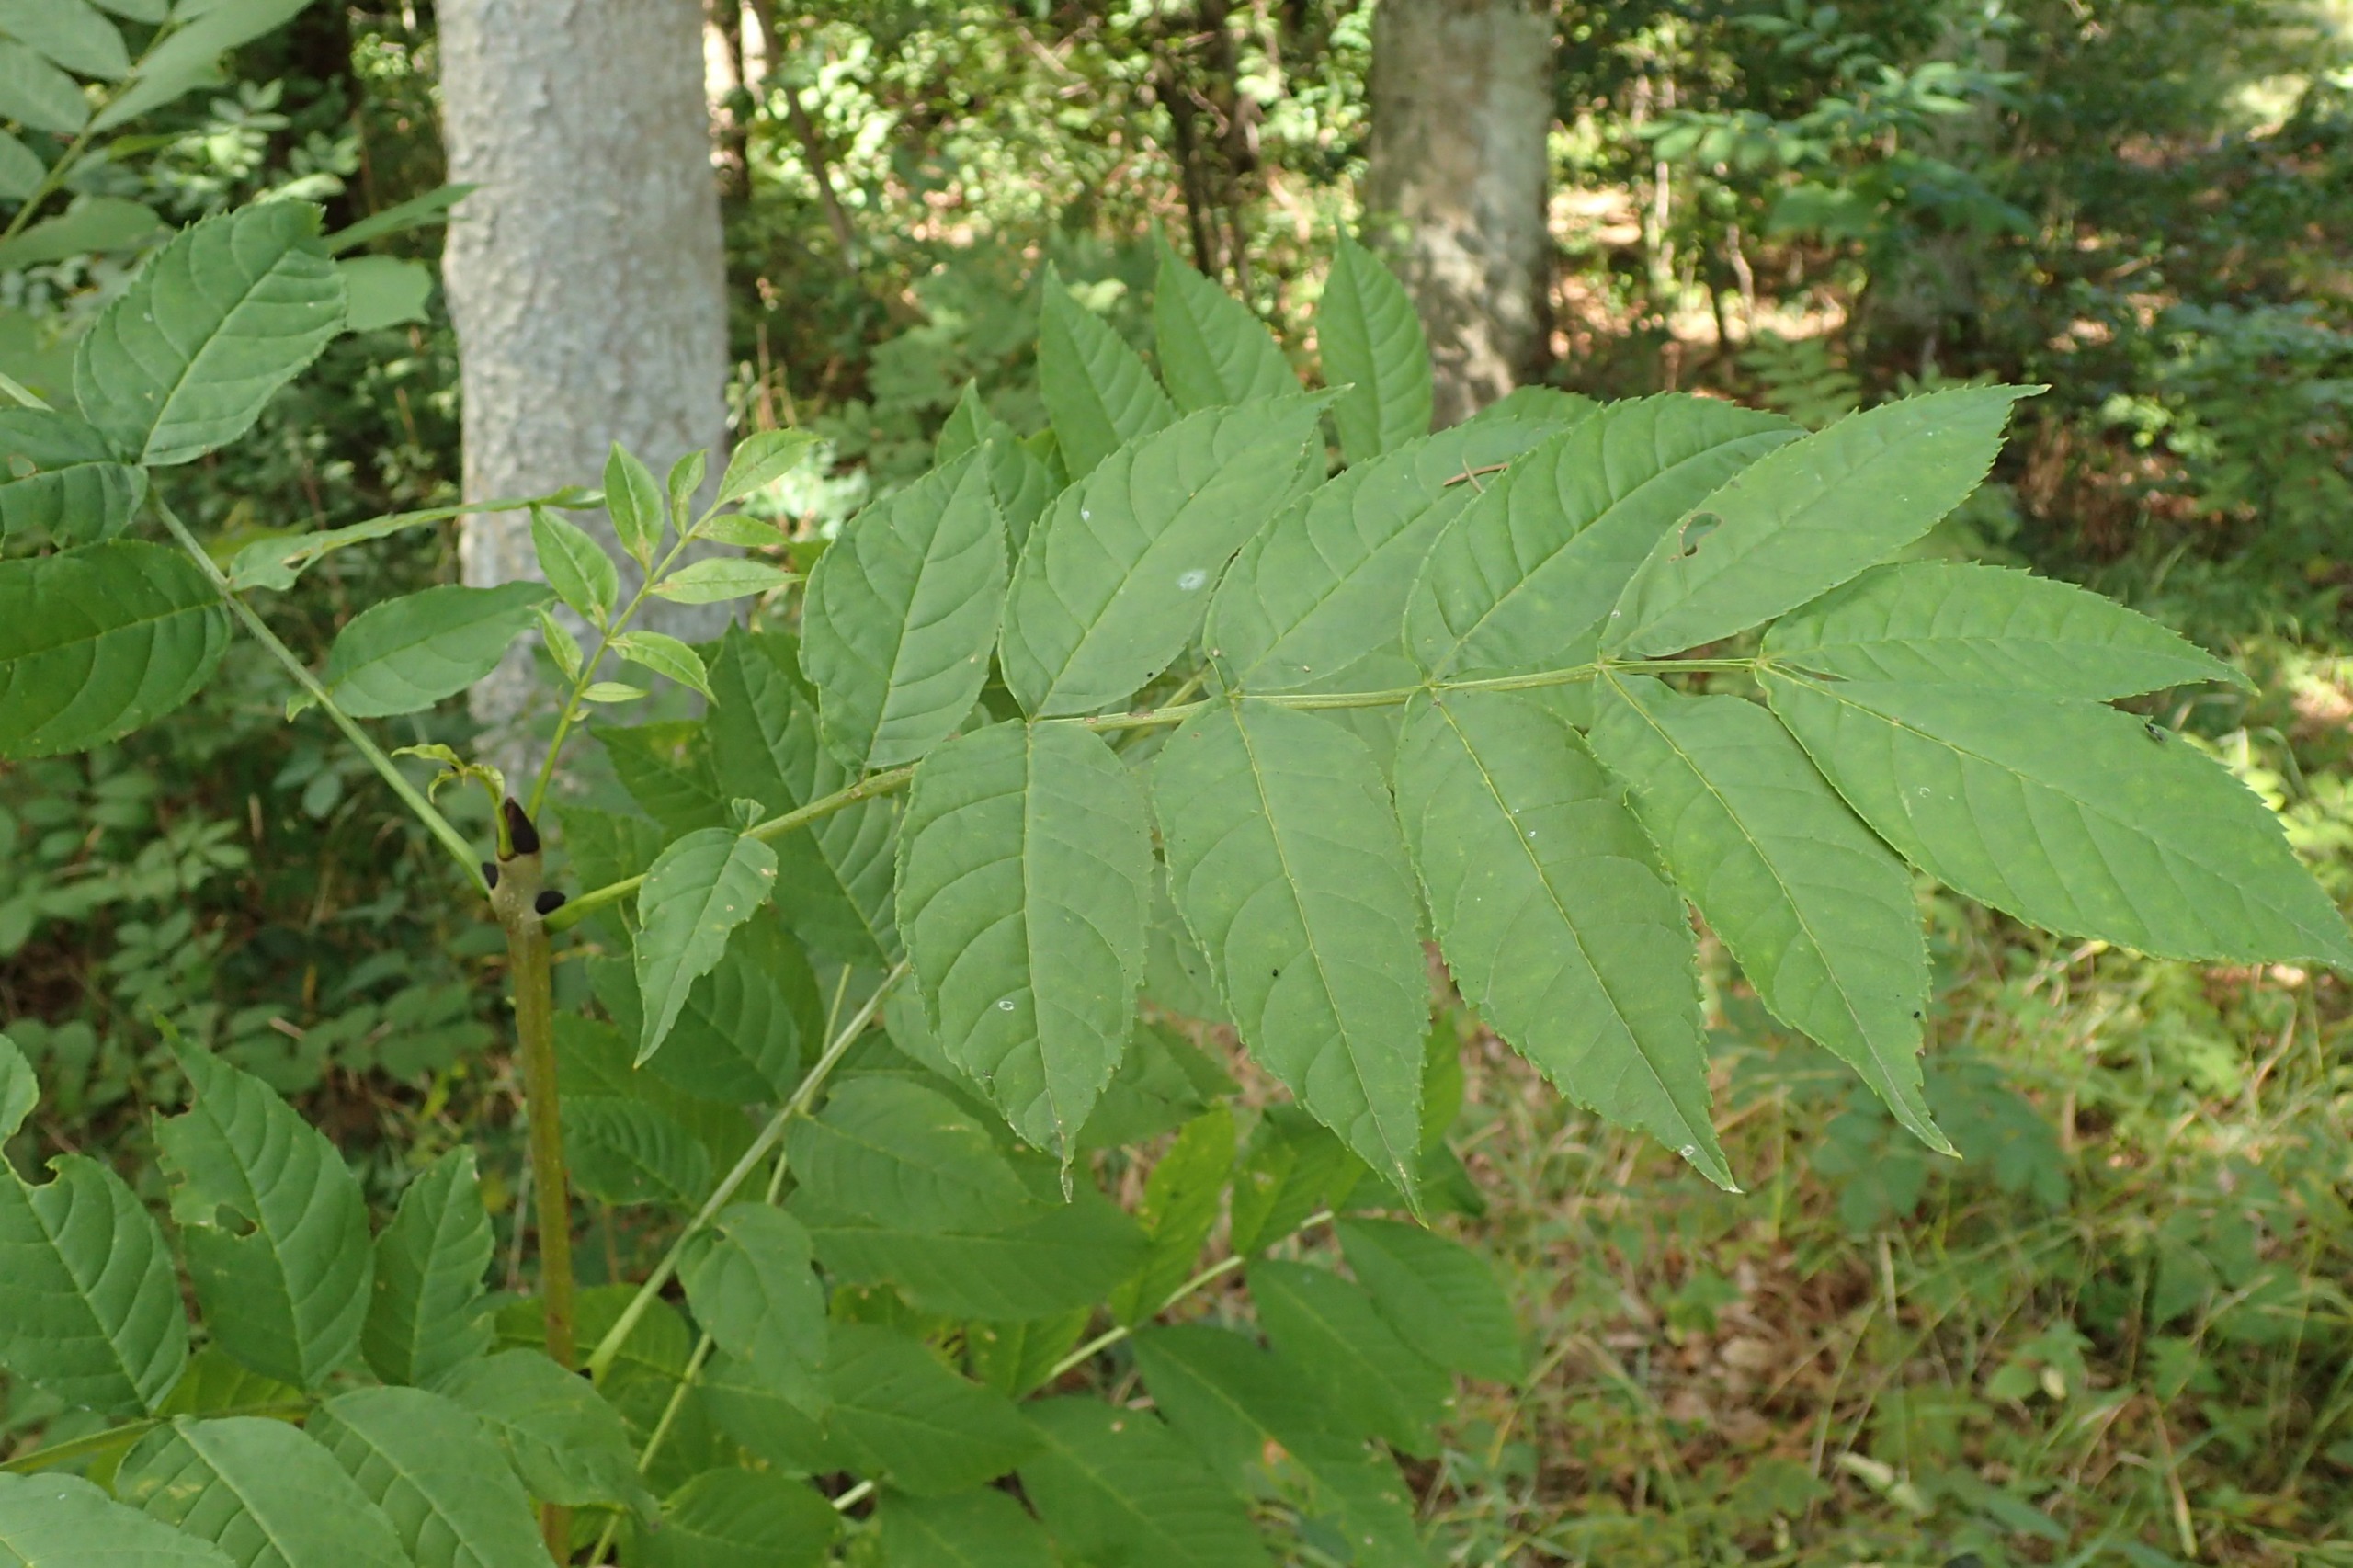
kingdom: Plantae
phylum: Tracheophyta
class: Magnoliopsida
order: Lamiales
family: Oleaceae
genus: Fraxinus
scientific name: Fraxinus excelsior
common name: Ask
